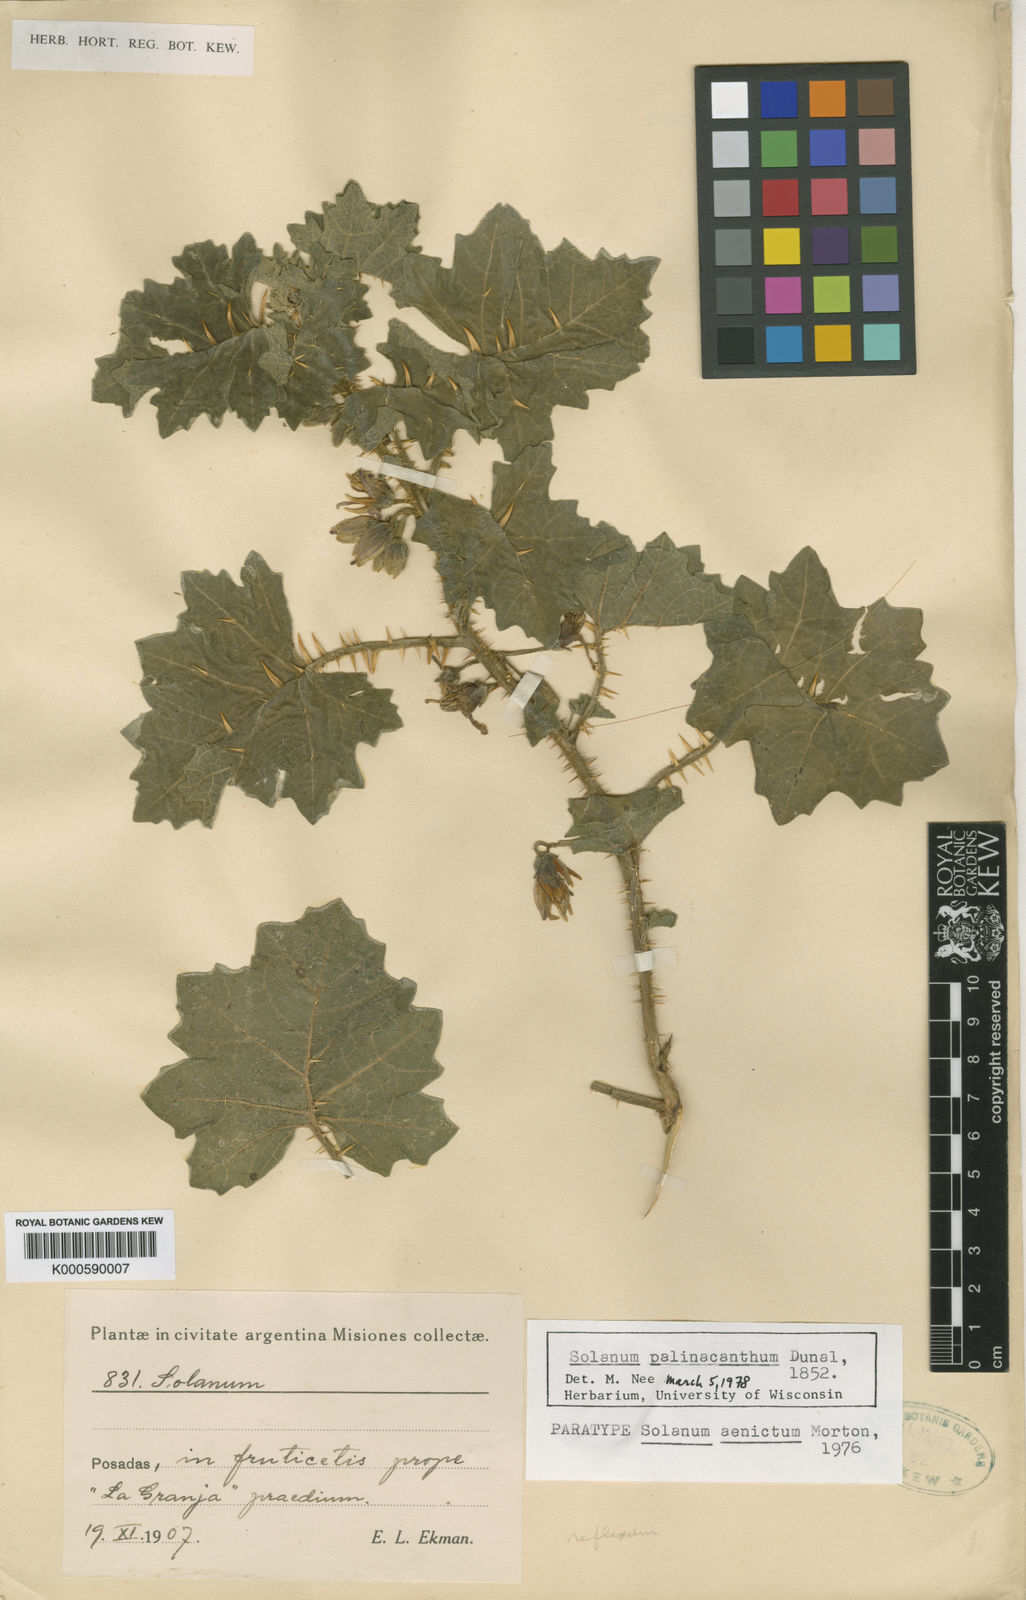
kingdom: Plantae
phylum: Tracheophyta
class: Magnoliopsida
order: Solanales
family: Solanaceae
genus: Solanum
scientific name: Solanum palinacanthum
